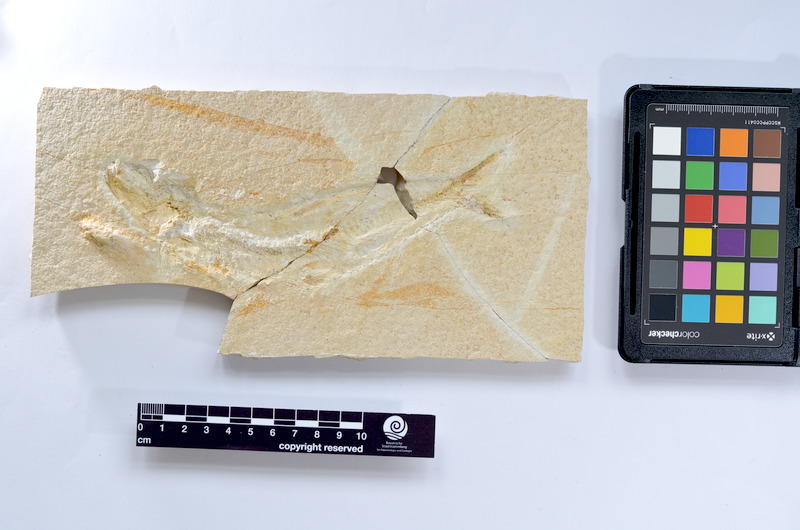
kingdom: Animalia
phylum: Chordata
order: Elopiformes
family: Anaethalionidae
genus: Anaethalion
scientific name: Anaethalion knorri
